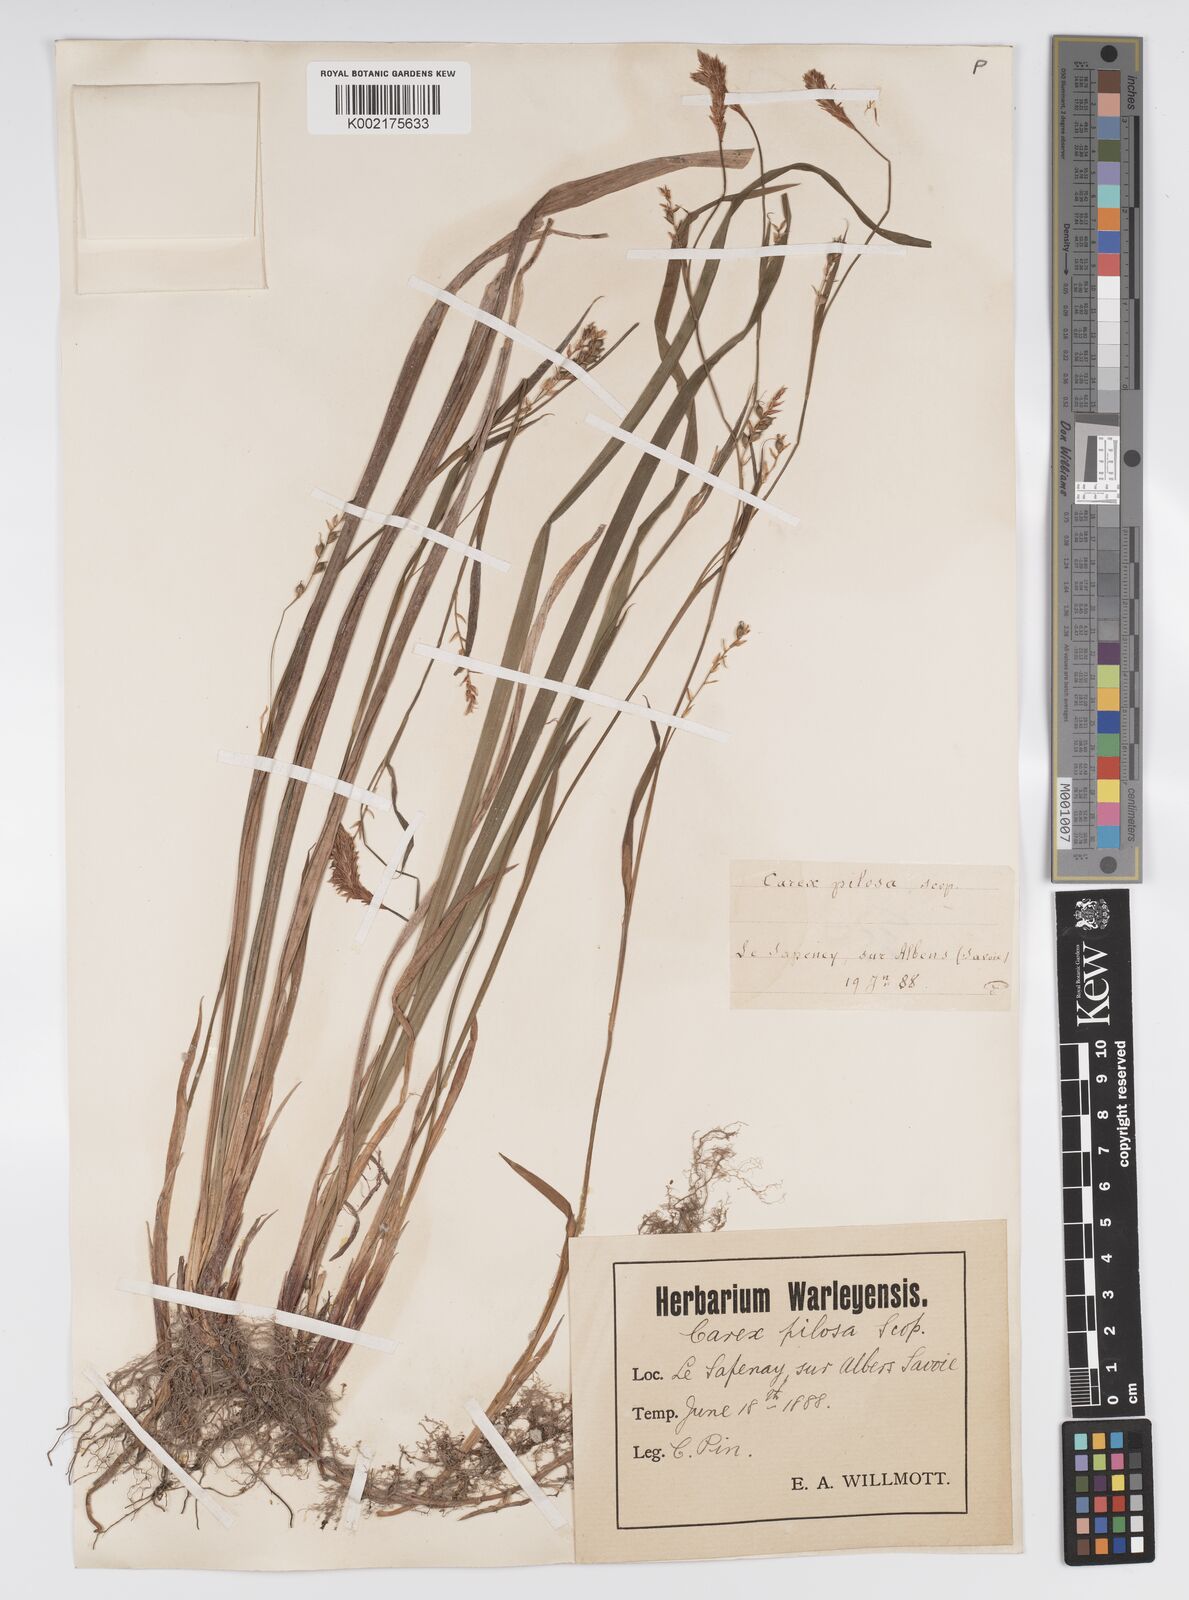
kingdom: Plantae
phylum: Tracheophyta
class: Liliopsida
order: Poales
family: Cyperaceae
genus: Carex
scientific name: Carex pilosa
